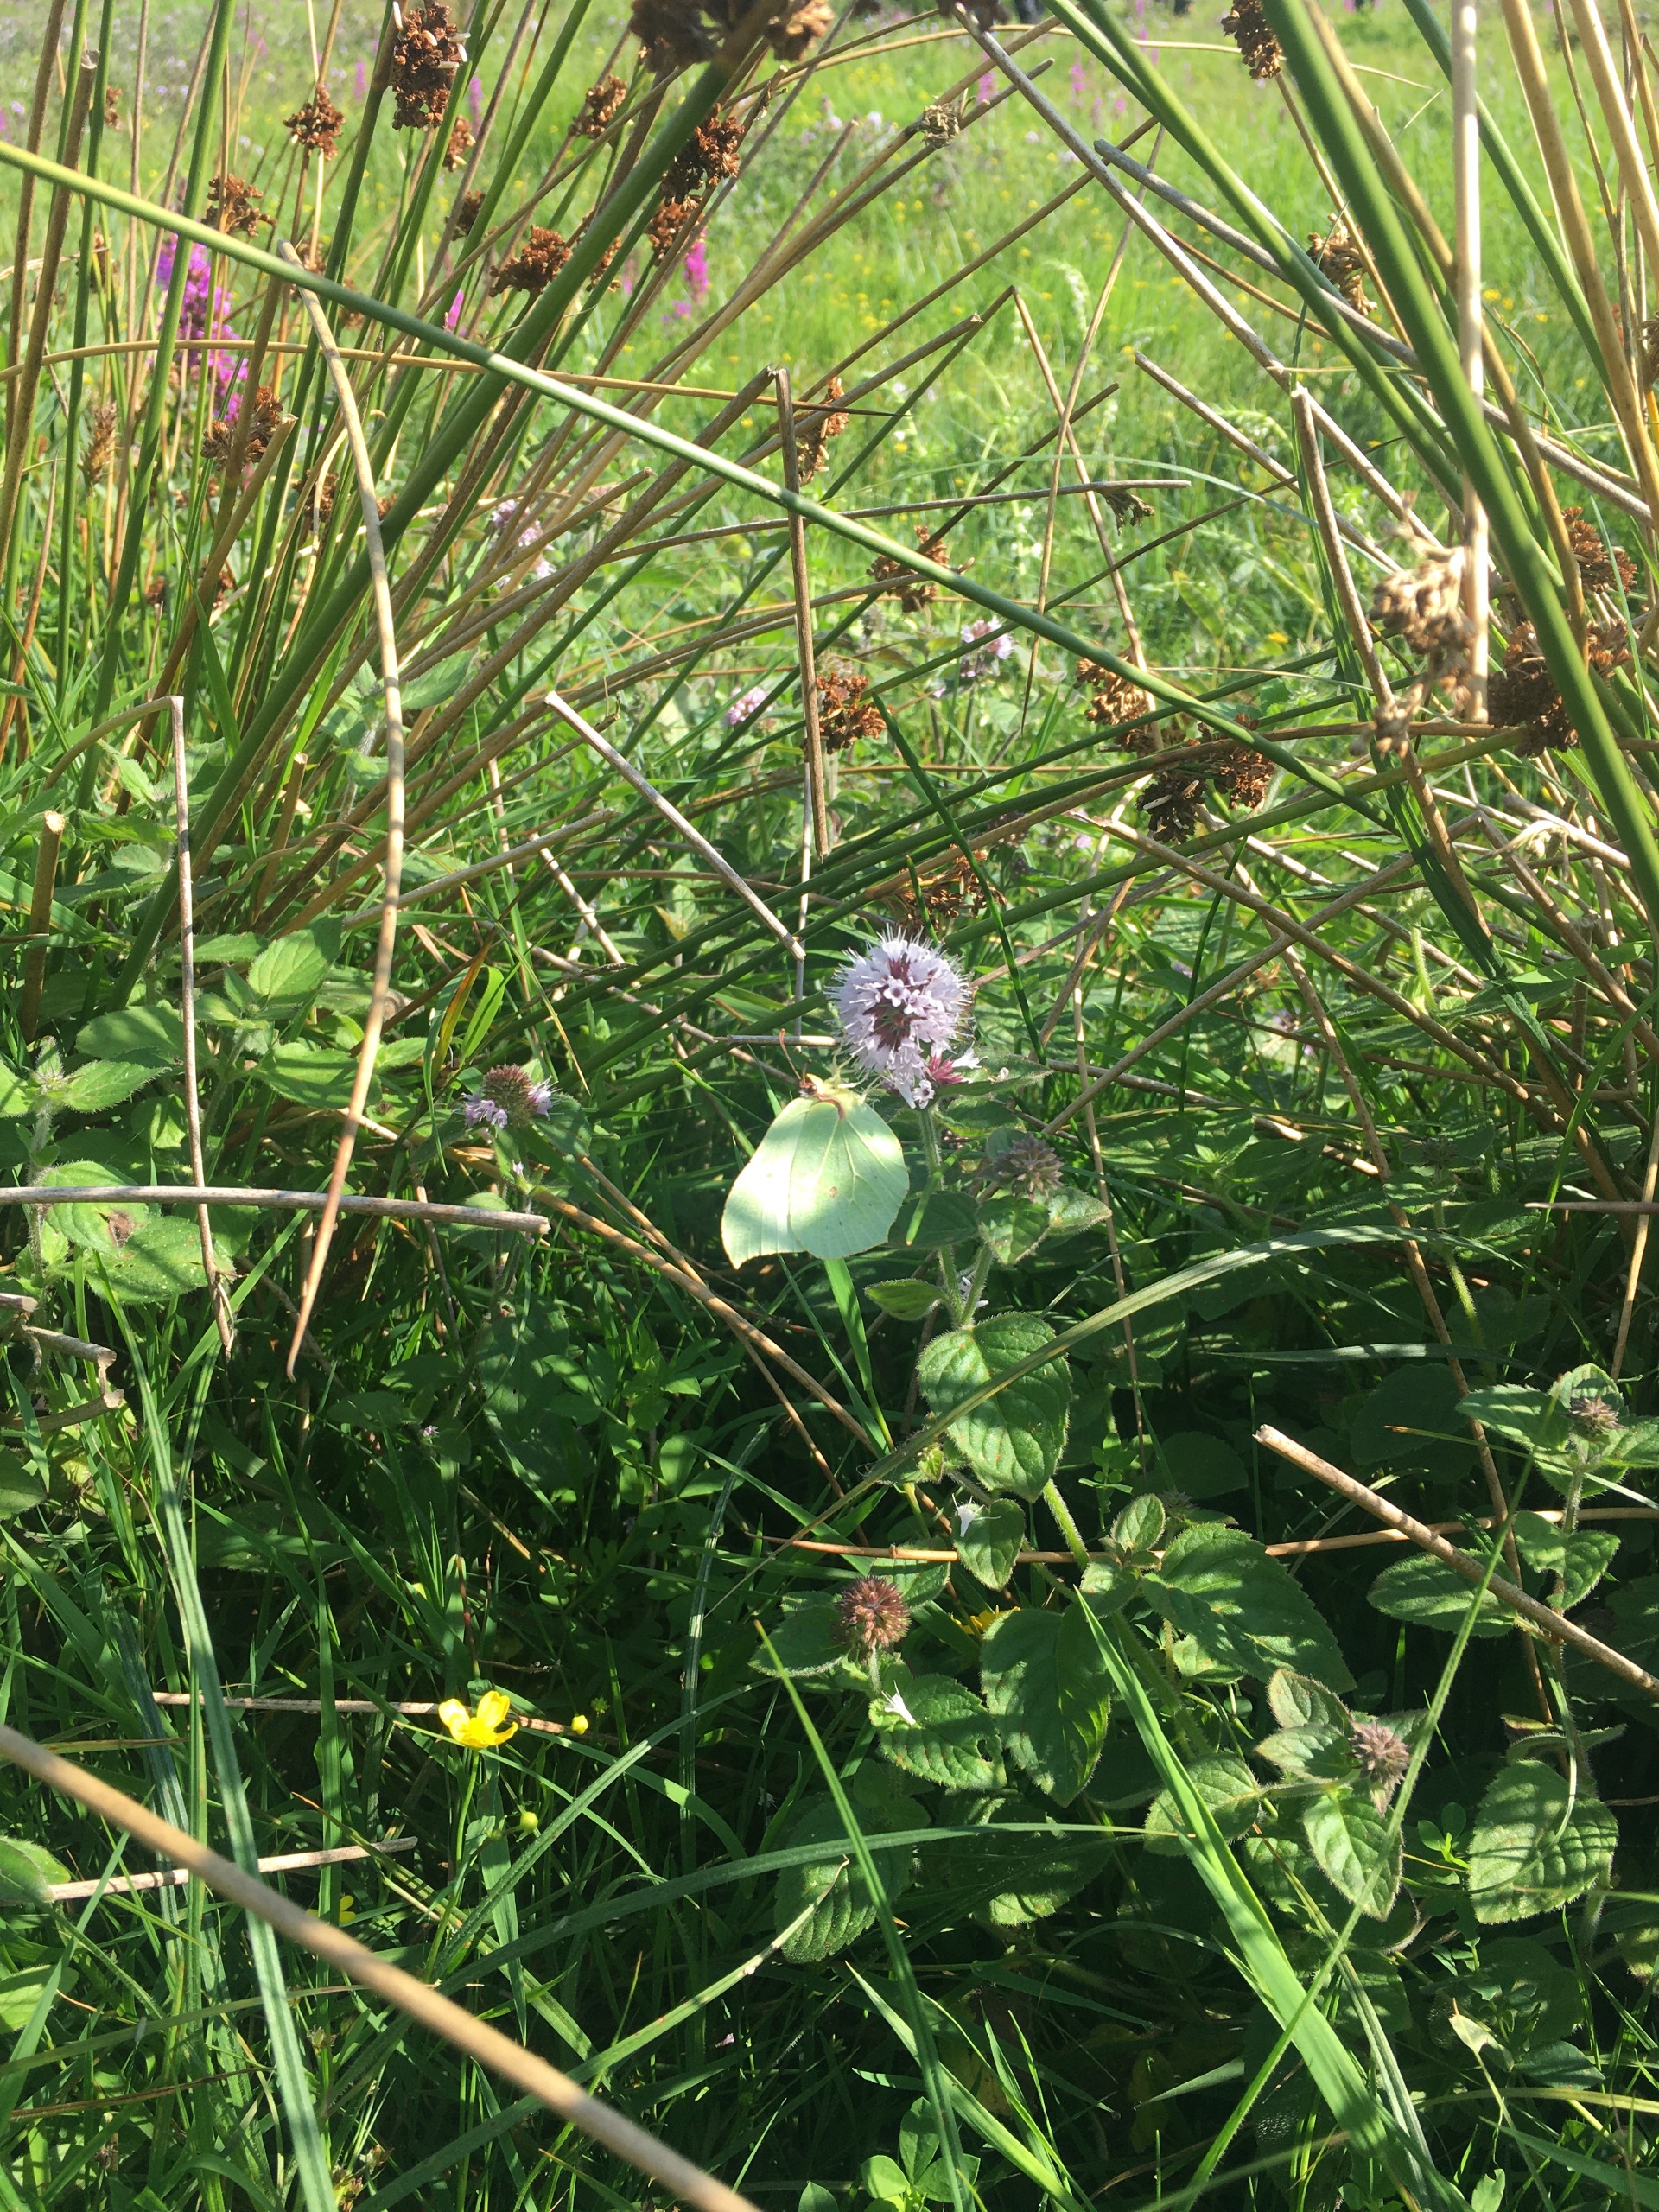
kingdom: Animalia
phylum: Arthropoda
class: Insecta
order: Lepidoptera
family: Pieridae
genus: Gonepteryx
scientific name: Gonepteryx rhamni
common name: Citronsommerfugl
